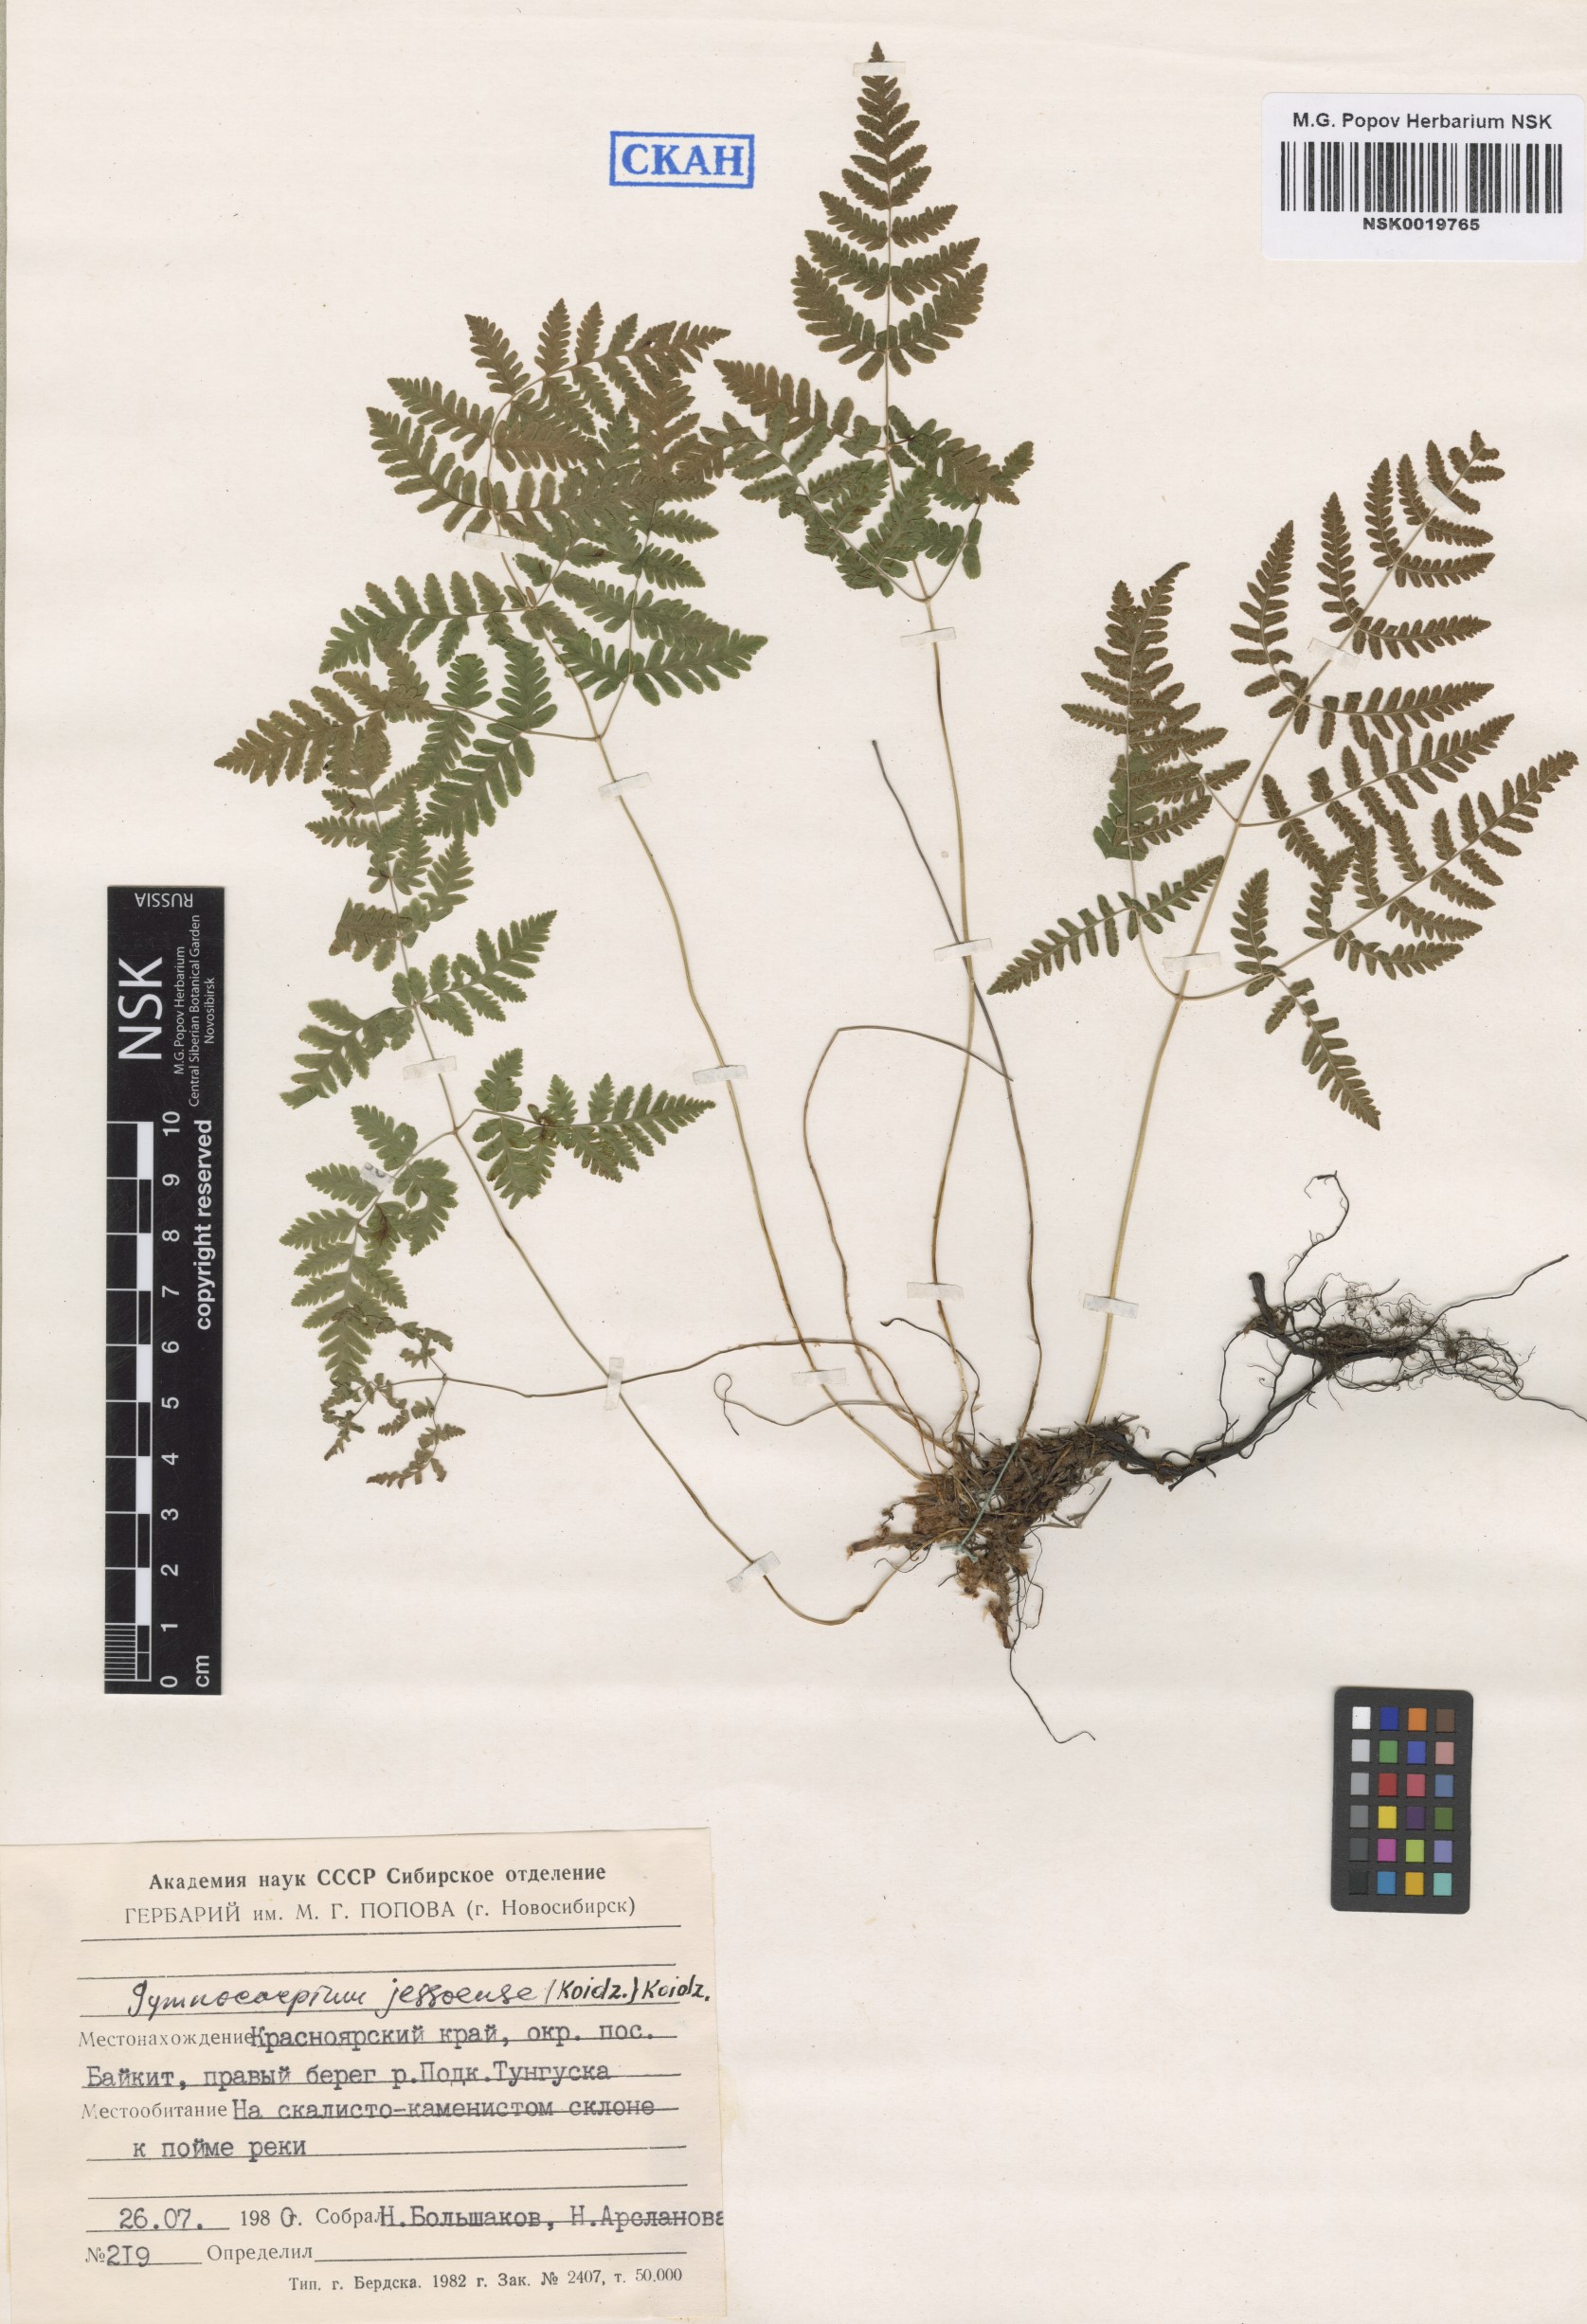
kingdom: Plantae
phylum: Tracheophyta
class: Polypodiopsida
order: Polypodiales
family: Cystopteridaceae
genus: Gymnocarpium
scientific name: Gymnocarpium jessoense
